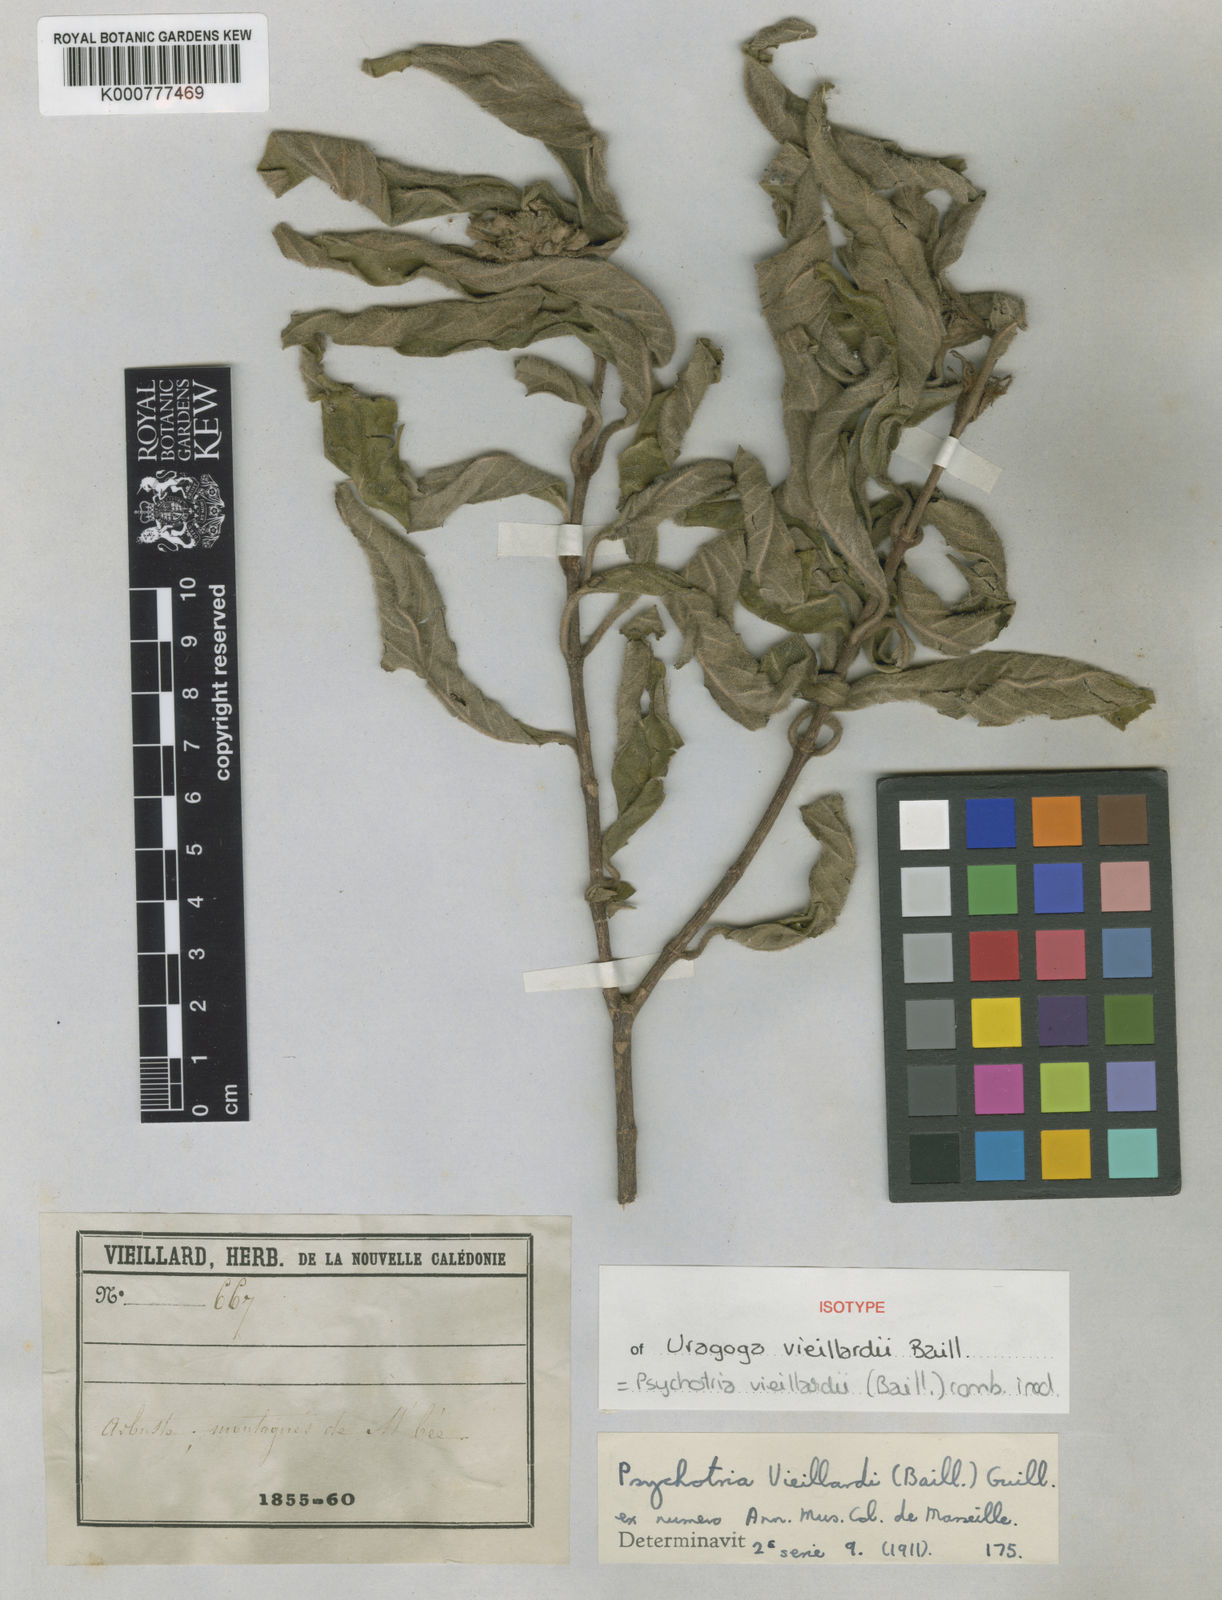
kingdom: Plantae
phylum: Tracheophyta
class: Magnoliopsida
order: Gentianales
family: Rubiaceae
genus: Psychotria
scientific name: Psychotria vieillardii
